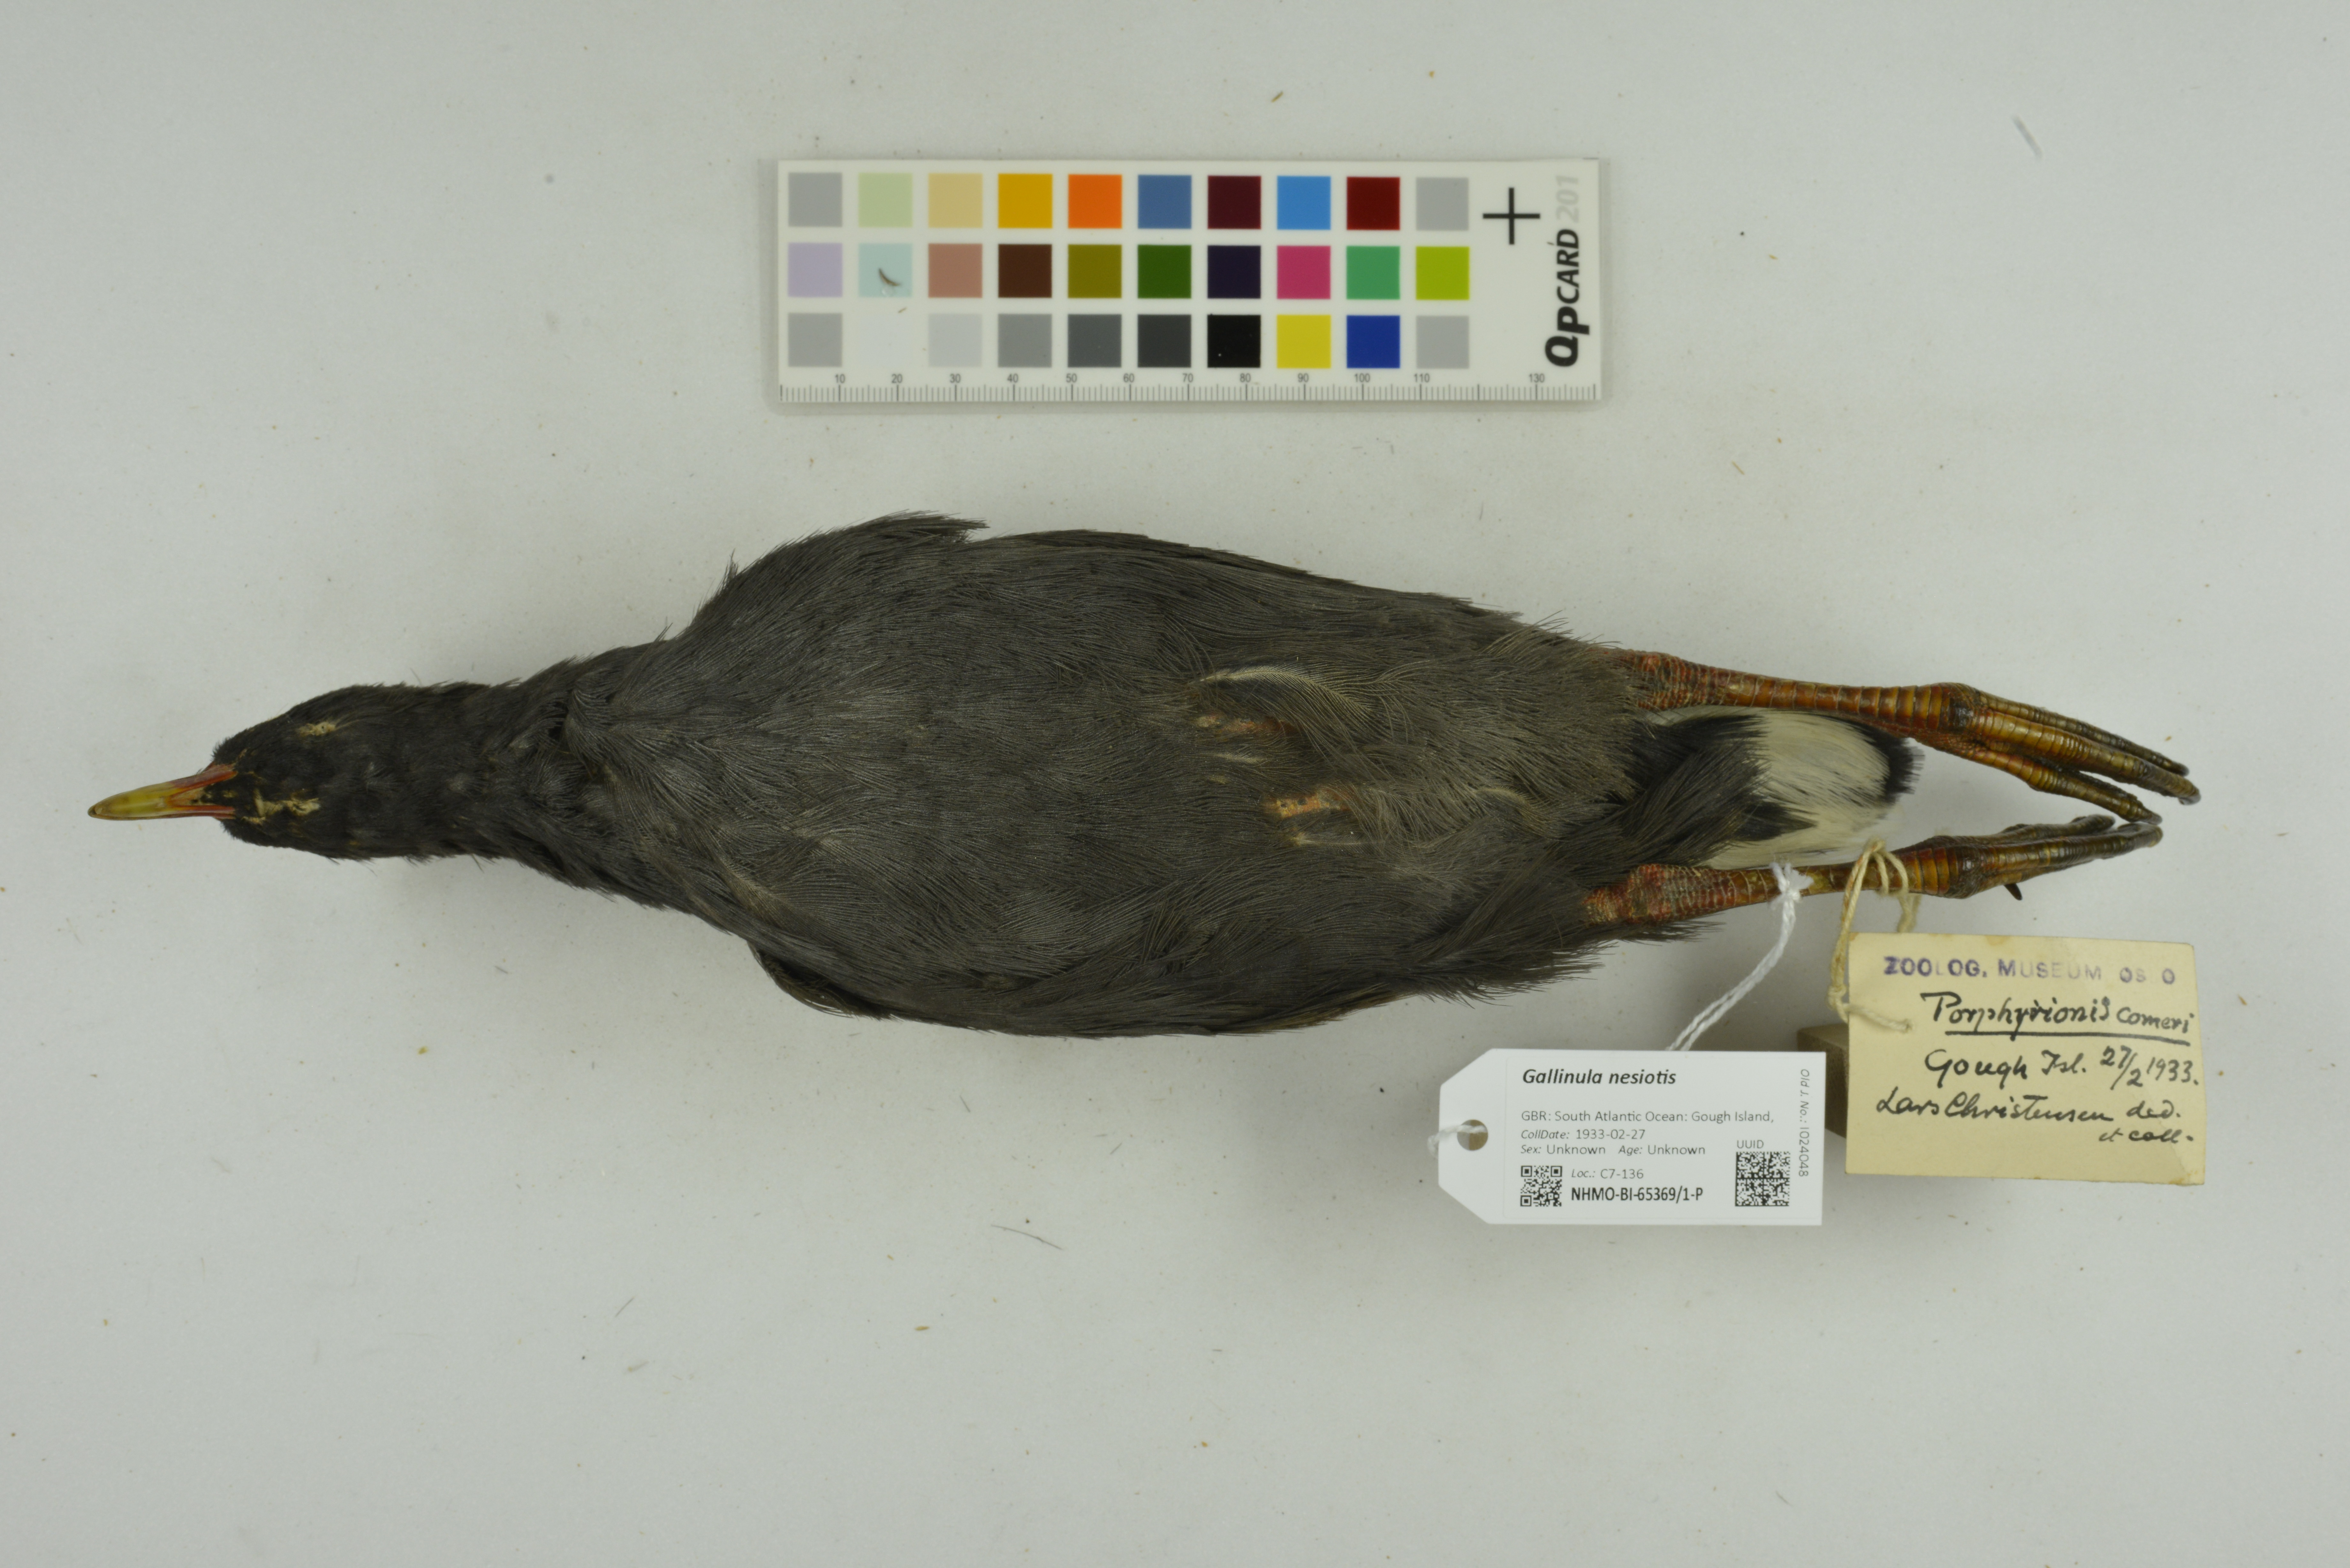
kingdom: Animalia
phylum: Chordata
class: Aves
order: Gruiformes
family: Rallidae
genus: Gallinula
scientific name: Gallinula comeri
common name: Gough moorhen
